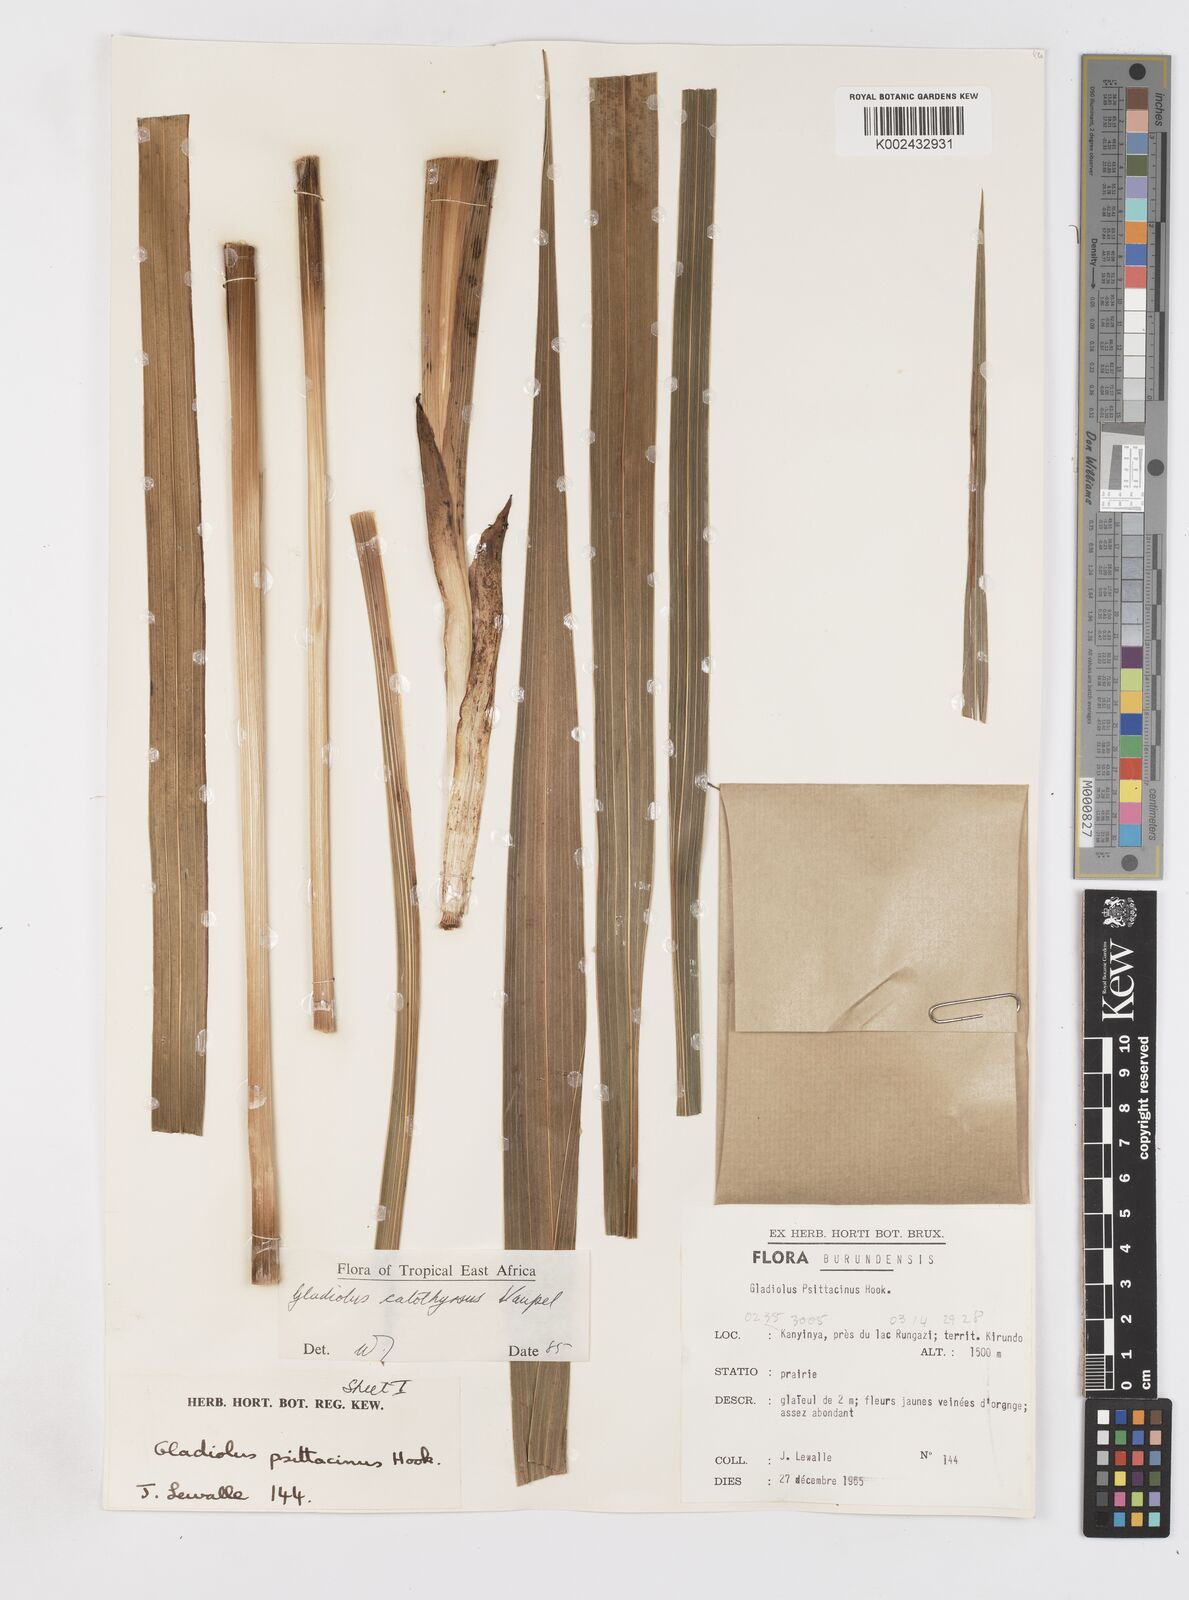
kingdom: Plantae
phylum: Tracheophyta
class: Liliopsida
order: Asparagales
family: Iridaceae
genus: Gladiolus
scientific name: Gladiolus dalenii
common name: Cornflag
